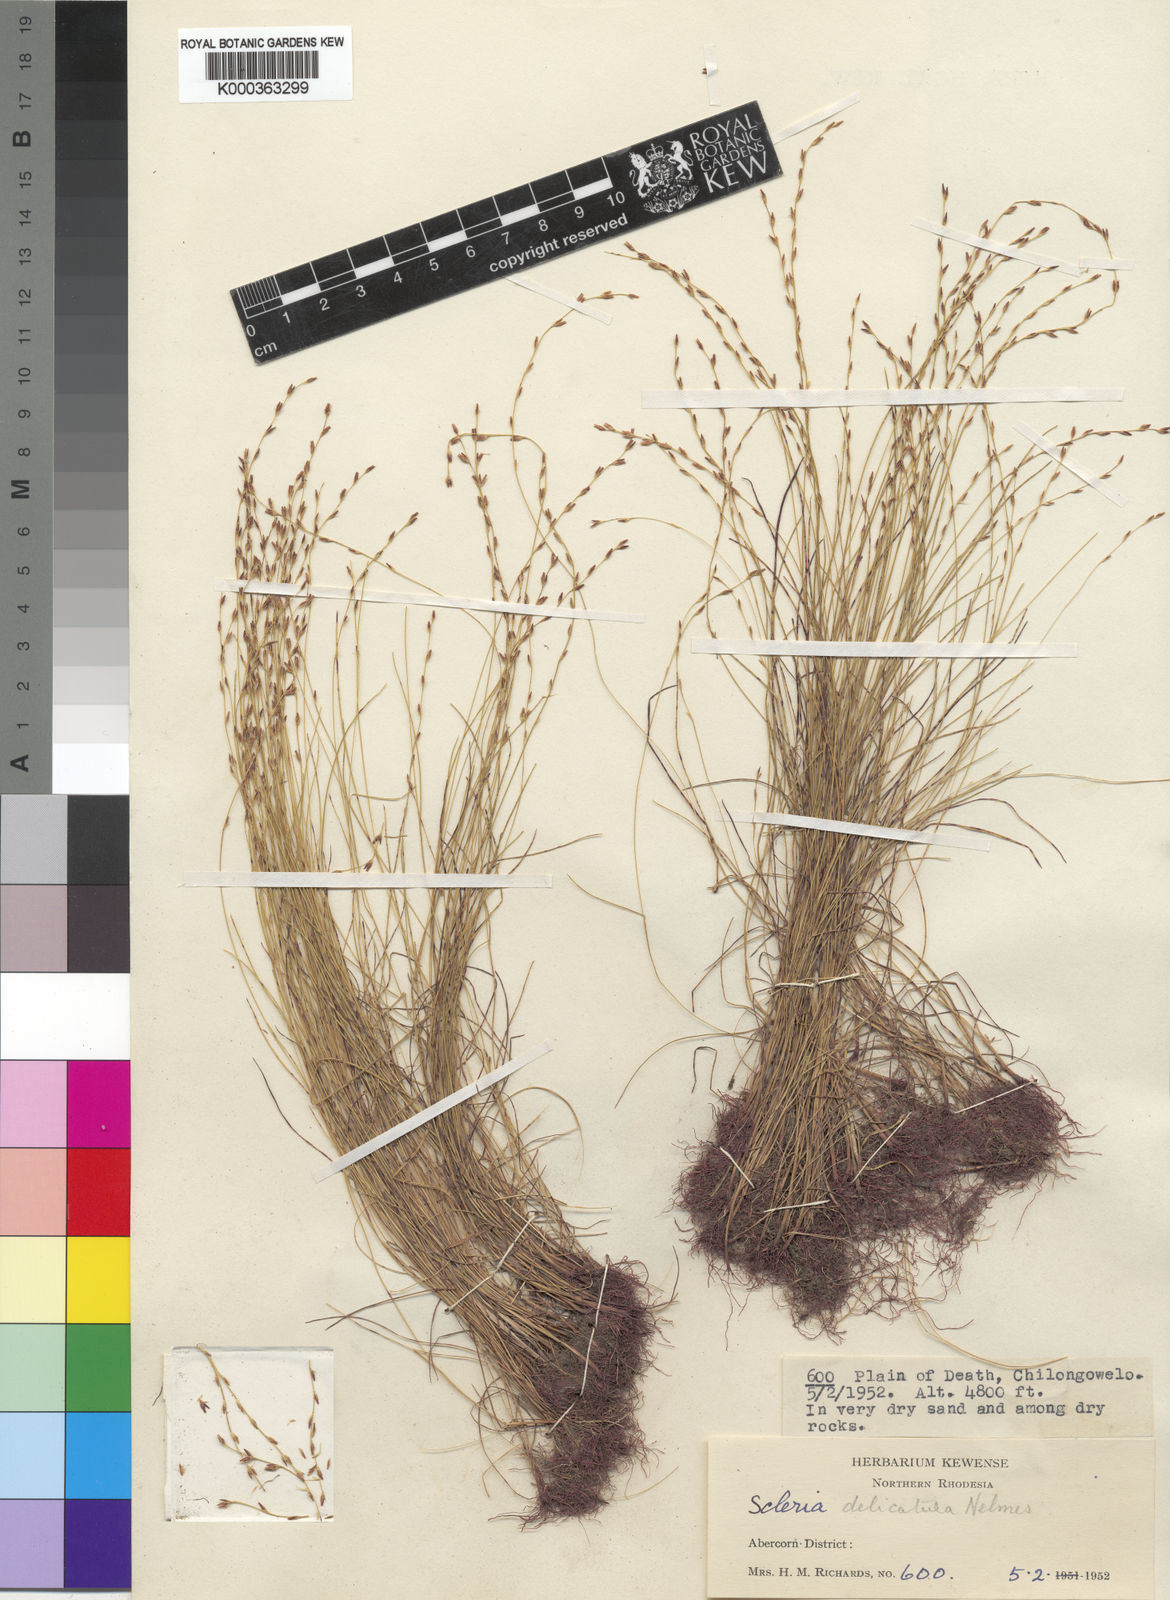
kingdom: Plantae
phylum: Tracheophyta
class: Liliopsida
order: Poales
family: Cyperaceae
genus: Scleria
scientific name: Scleria delicatula
